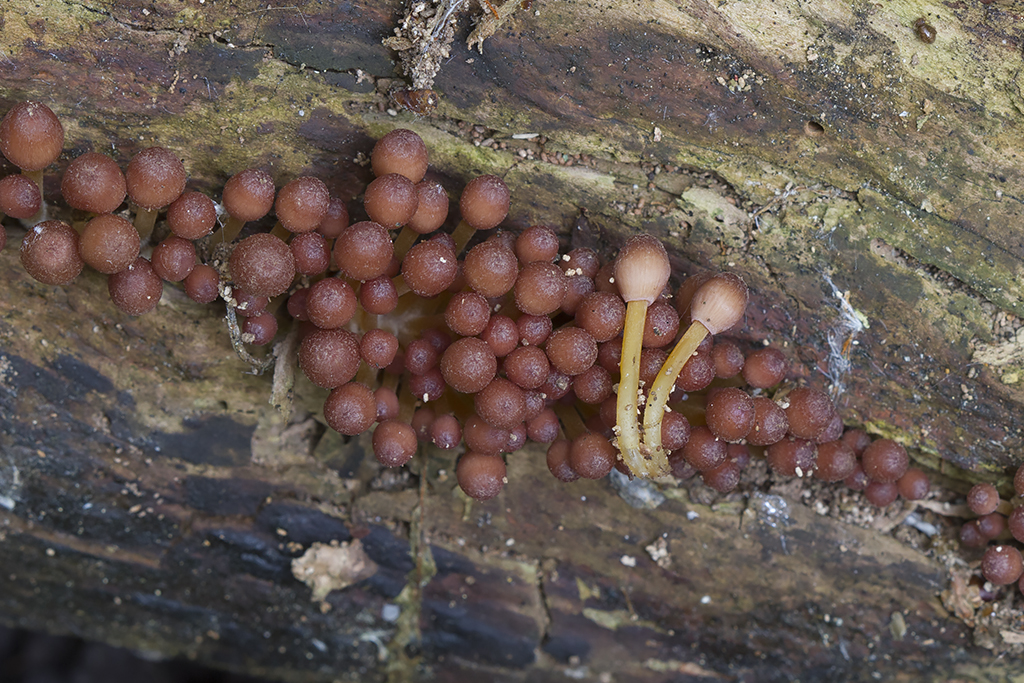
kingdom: Fungi
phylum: Basidiomycota
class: Agaricomycetes
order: Agaricales
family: Mycenaceae
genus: Mycena
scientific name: Mycena renati
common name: smuk huesvamp
